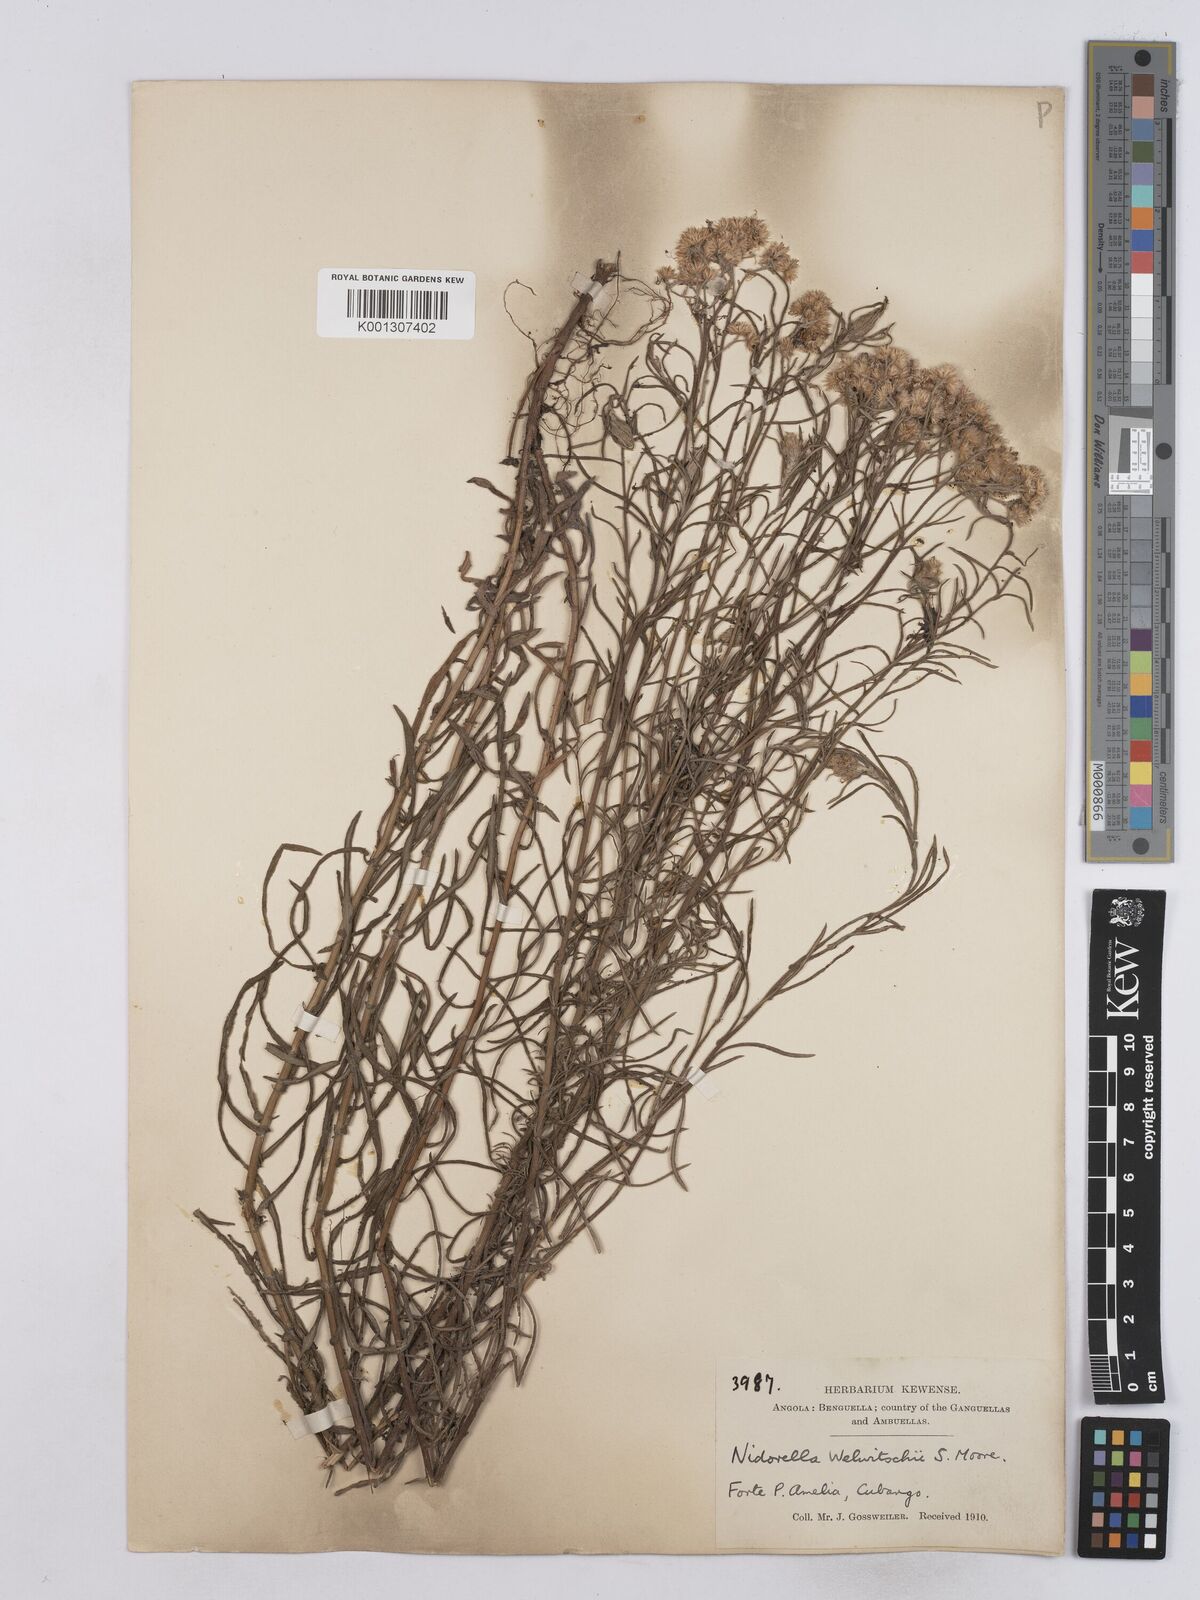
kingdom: Plantae
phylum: Tracheophyta
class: Magnoliopsida
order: Asterales
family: Asteraceae
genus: Nidorella
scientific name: Nidorella welwitschii
